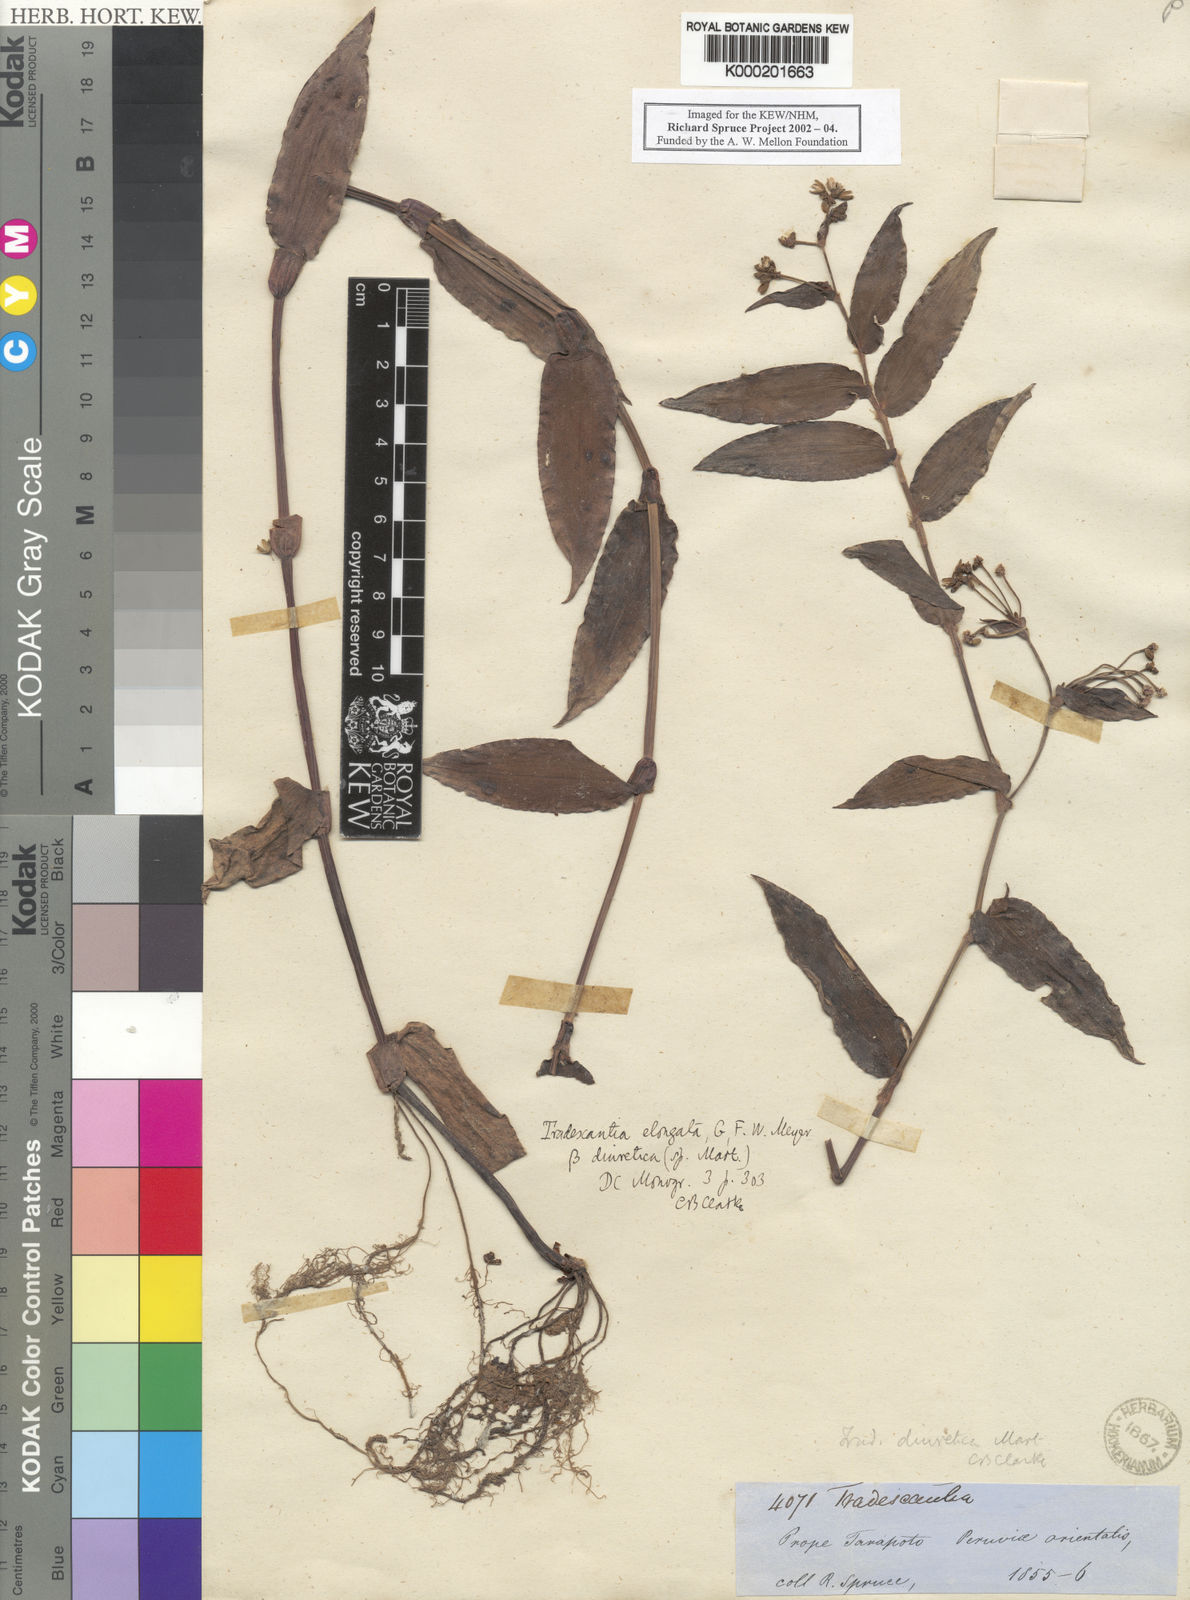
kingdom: Plantae
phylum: Tracheophyta
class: Liliopsida
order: Commelinales
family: Commelinaceae
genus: Callisia
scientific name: Callisia diuretica
